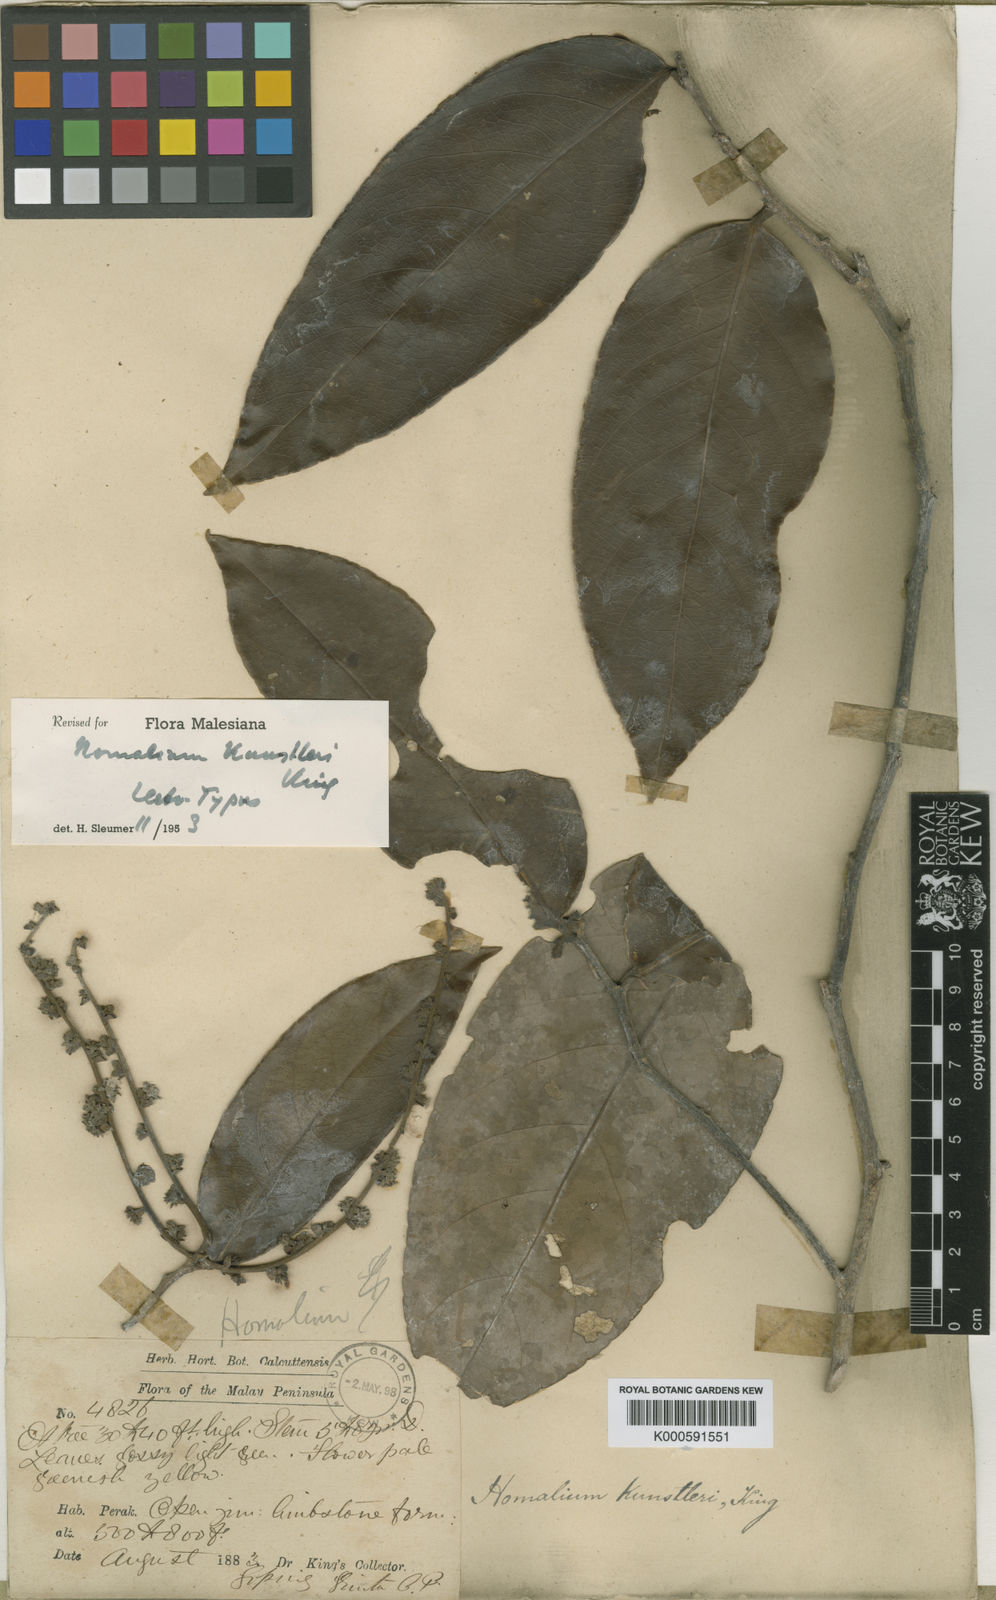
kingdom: Plantae
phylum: Tracheophyta
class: Magnoliopsida
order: Malpighiales
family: Salicaceae
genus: Homalium
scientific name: Homalium kunstleri
